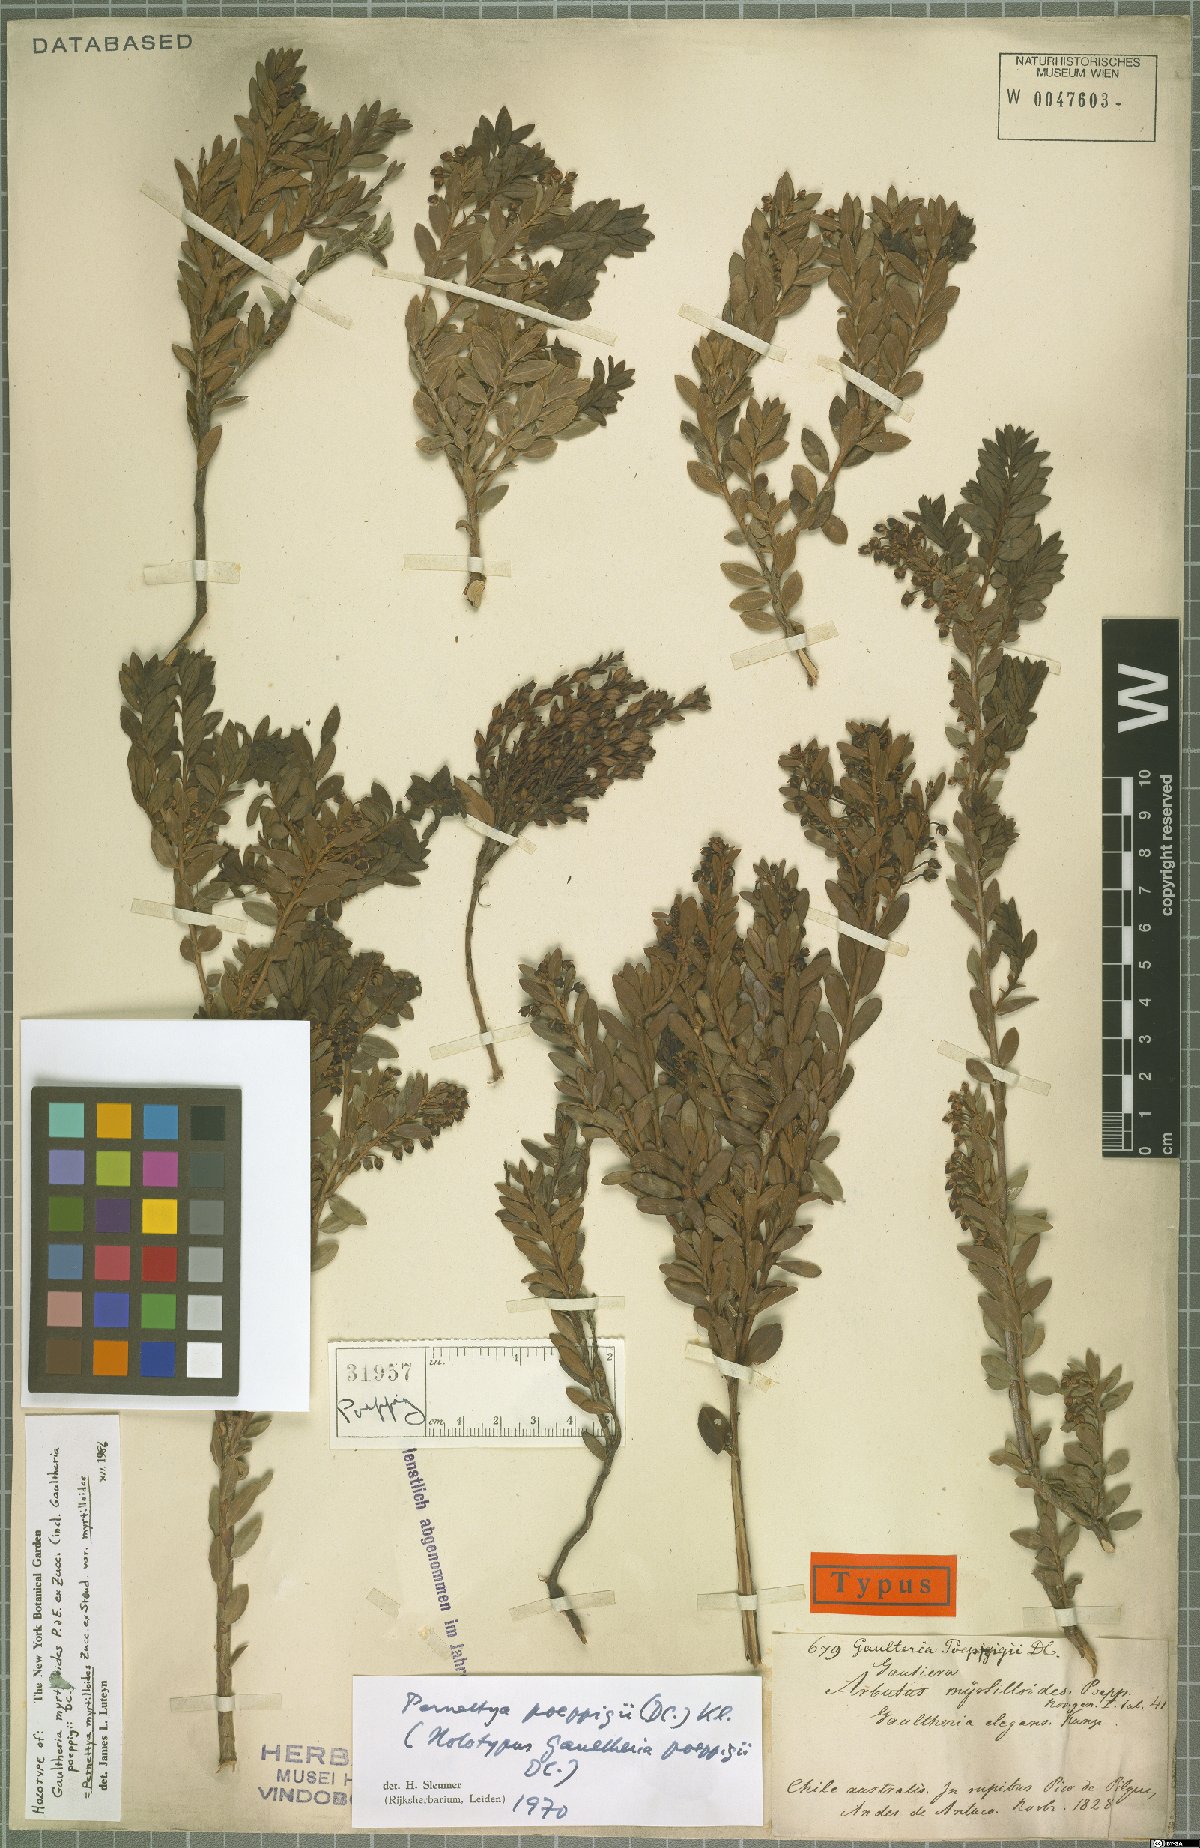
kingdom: Plantae
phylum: Tracheophyta
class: Magnoliopsida
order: Ericales
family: Ericaceae
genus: Gaultheria
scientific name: Gaultheria poeppigii
